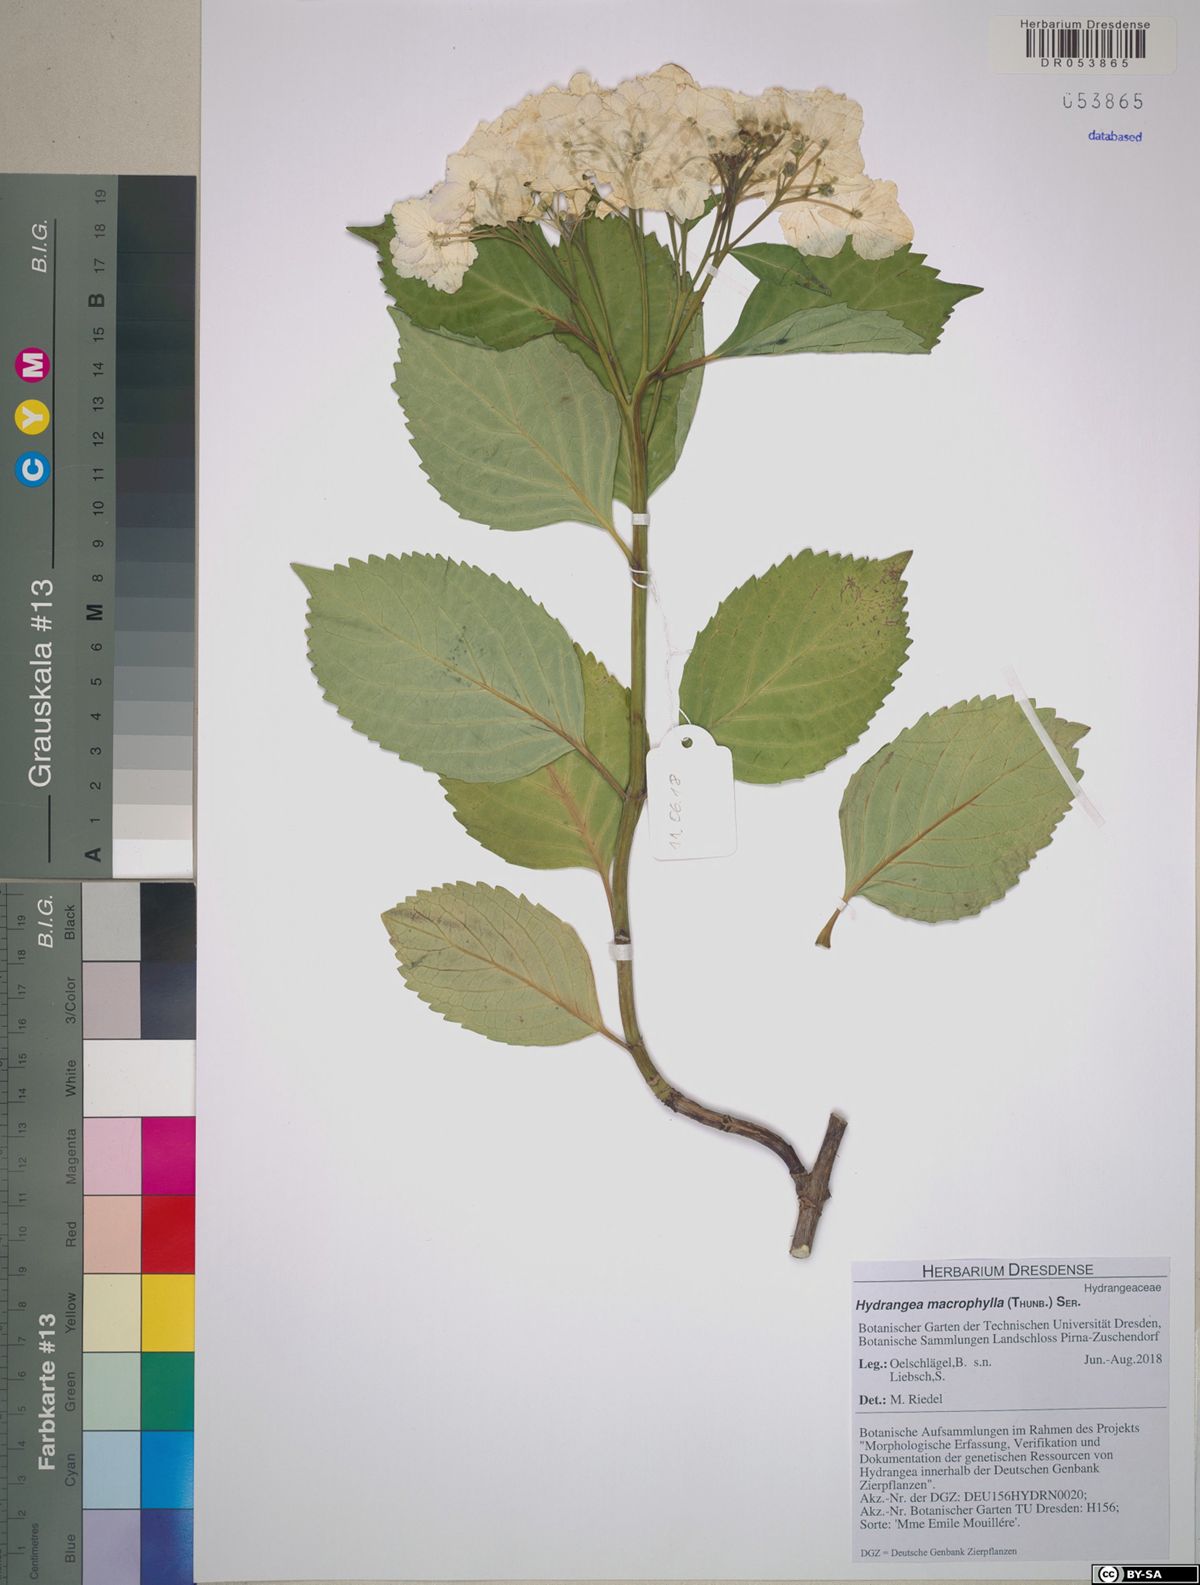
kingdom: Plantae
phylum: Tracheophyta
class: Magnoliopsida
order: Cornales
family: Hydrangeaceae
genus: Hydrangea
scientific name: Hydrangea macrophylla
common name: Hydrangea
